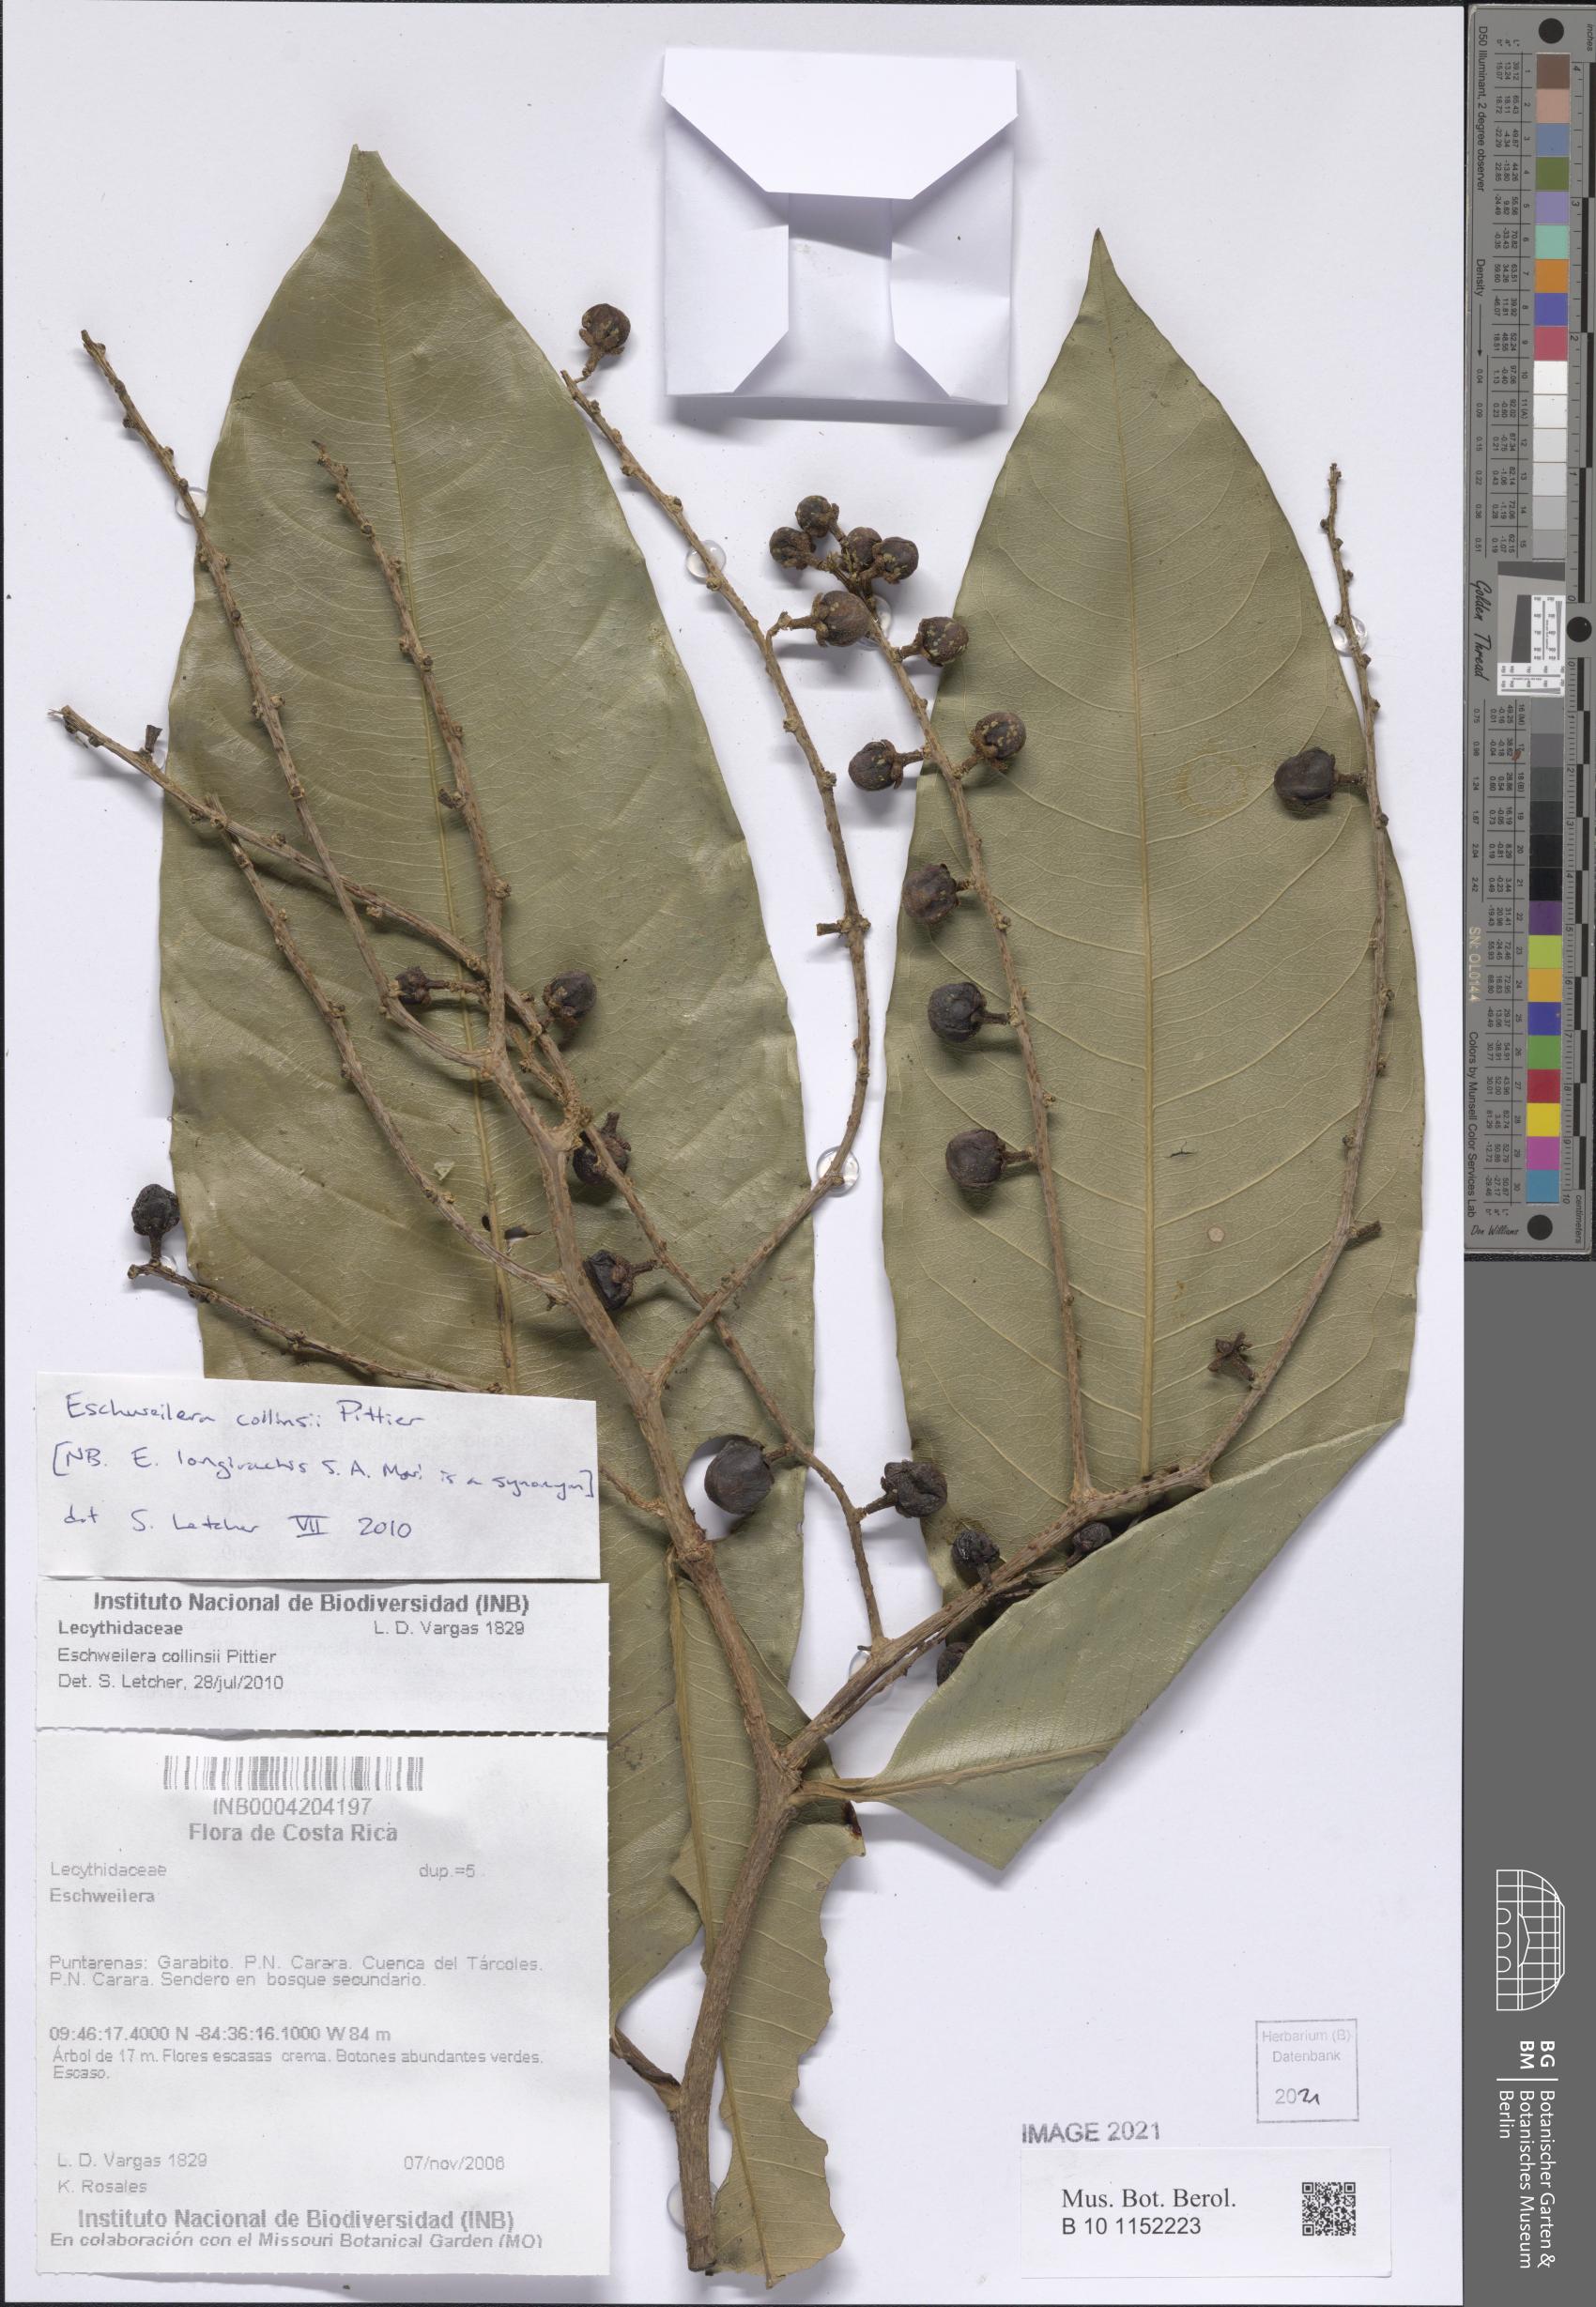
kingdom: Plantae
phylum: Tracheophyta
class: Magnoliopsida
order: Ericales
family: Lecythidaceae
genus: Eschweilera
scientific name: Eschweilera collinsii
